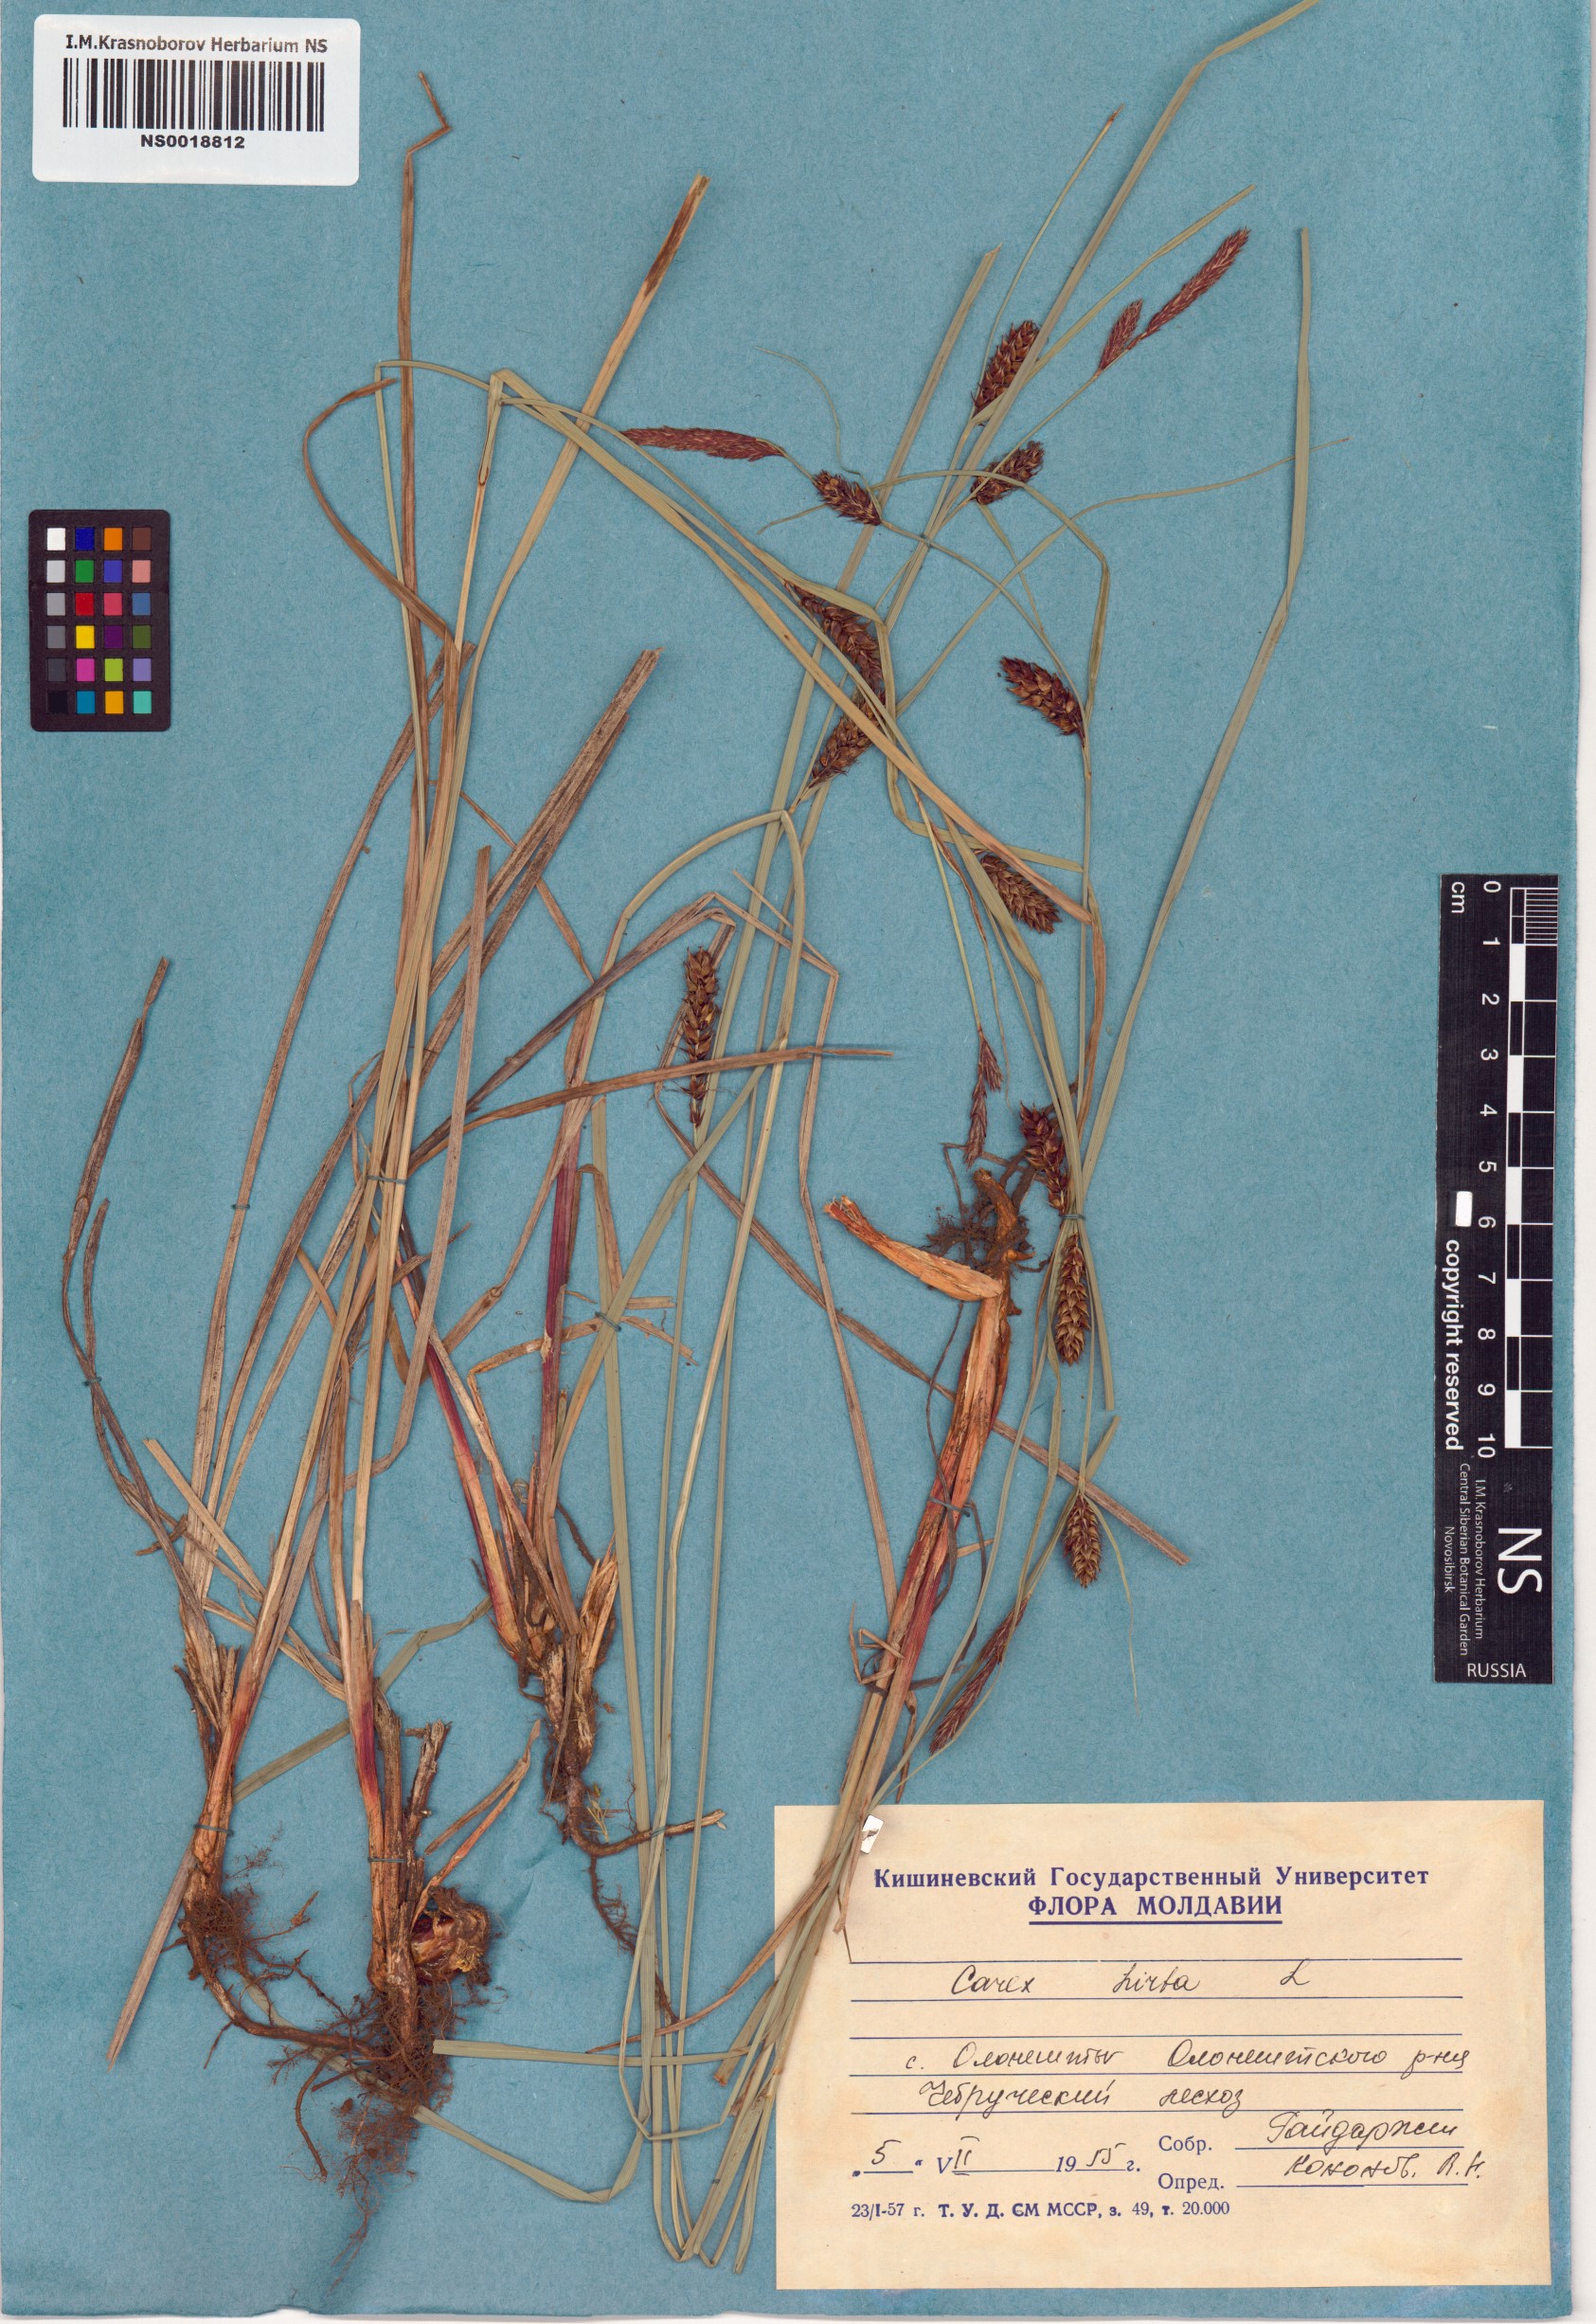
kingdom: Plantae
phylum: Tracheophyta
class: Liliopsida
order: Poales
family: Cyperaceae
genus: Carex
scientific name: Carex hirta
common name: Hairy sedge
